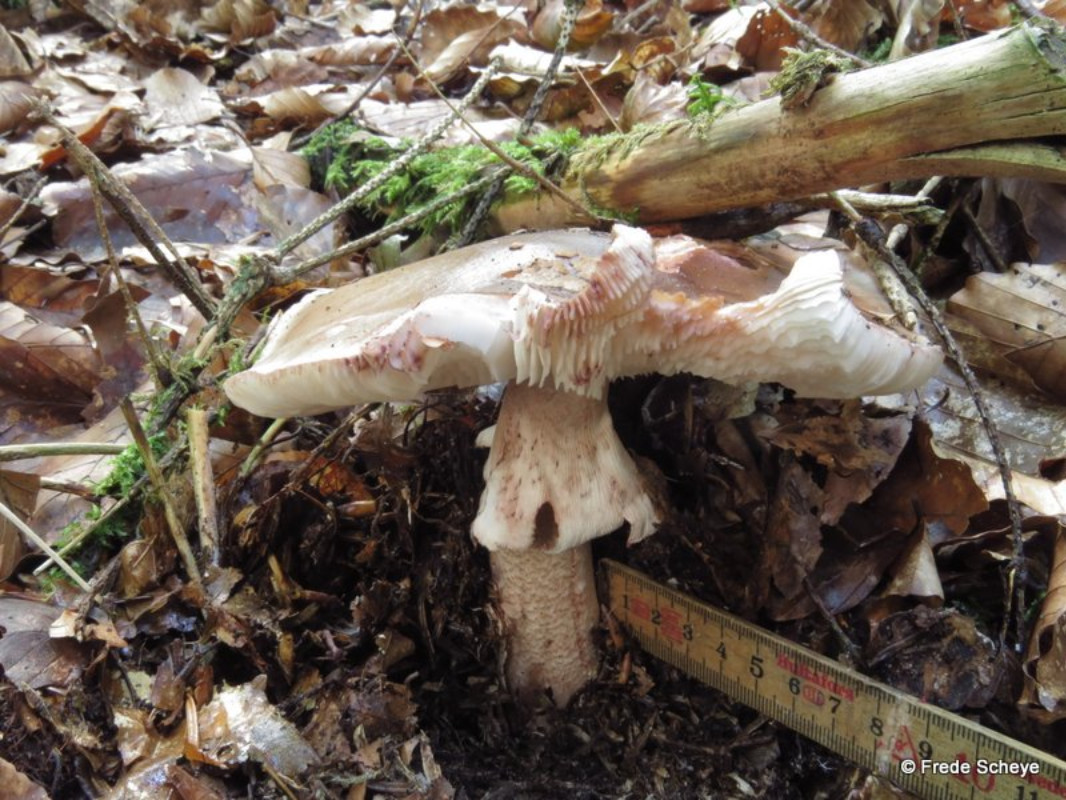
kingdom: Fungi
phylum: Basidiomycota
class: Agaricomycetes
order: Agaricales
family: Amanitaceae
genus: Amanita
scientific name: Amanita rubescens
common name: rødmende fluesvamp
